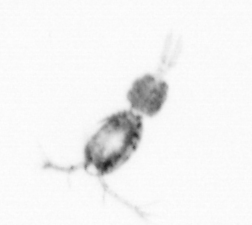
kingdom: Animalia
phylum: Arthropoda
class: Copepoda
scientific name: Copepoda
